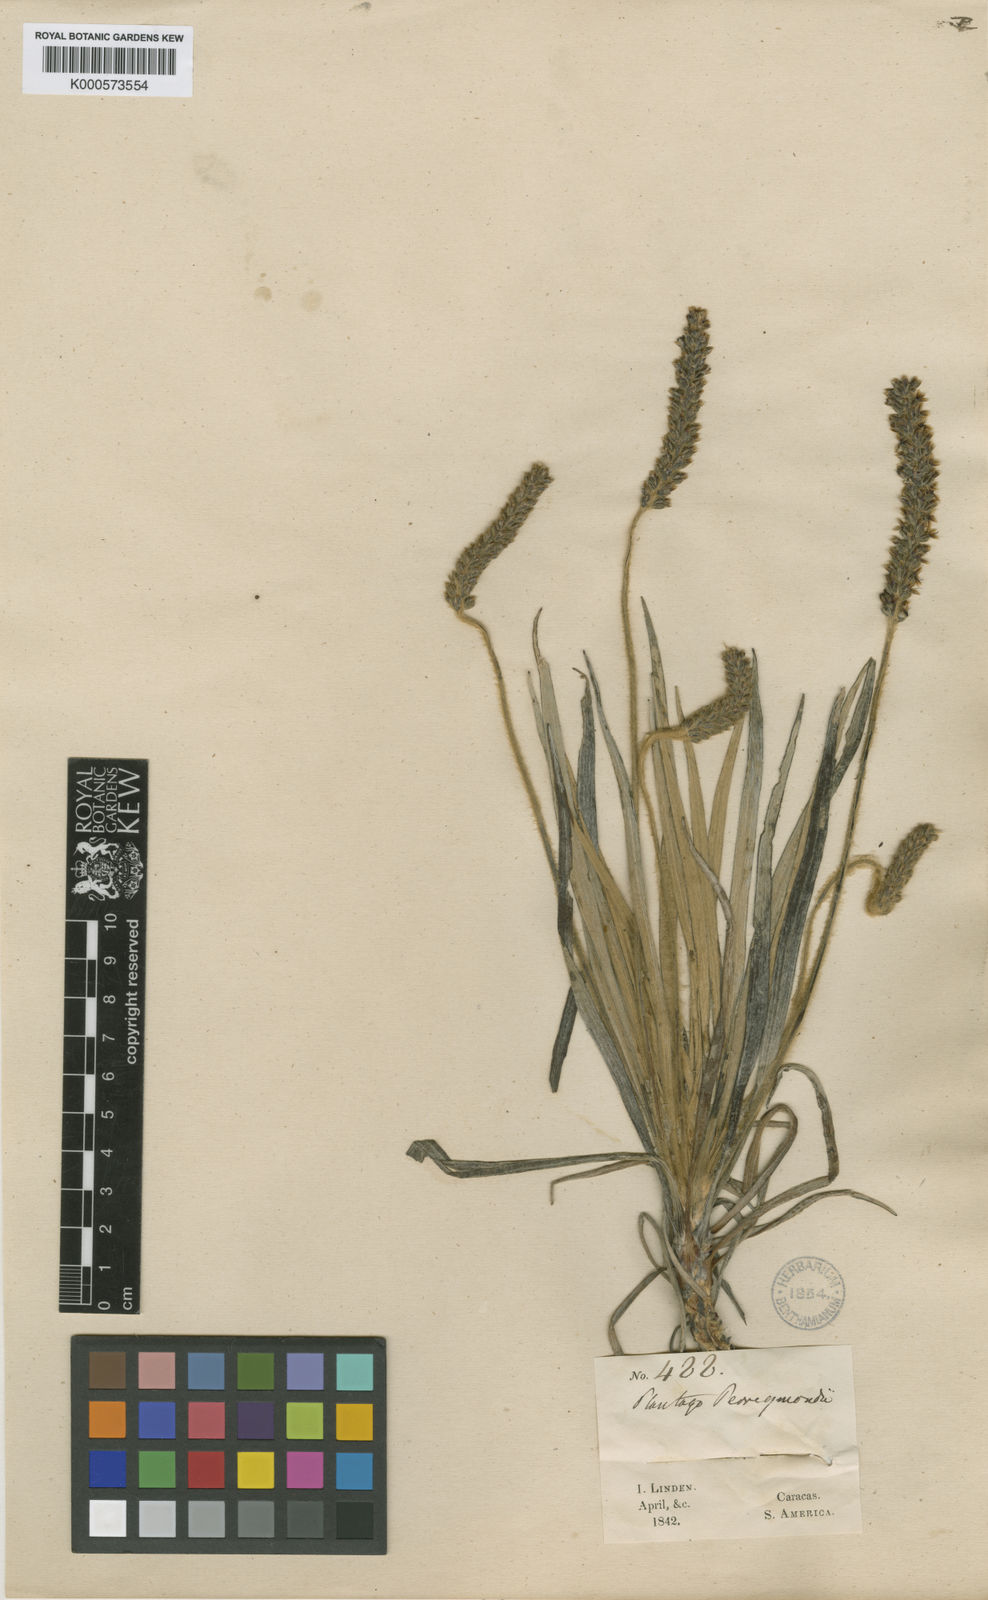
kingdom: Plantae
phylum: Tracheophyta
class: Magnoliopsida
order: Lamiales
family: Plantaginaceae
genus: Plantago
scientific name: Plantago sericea
